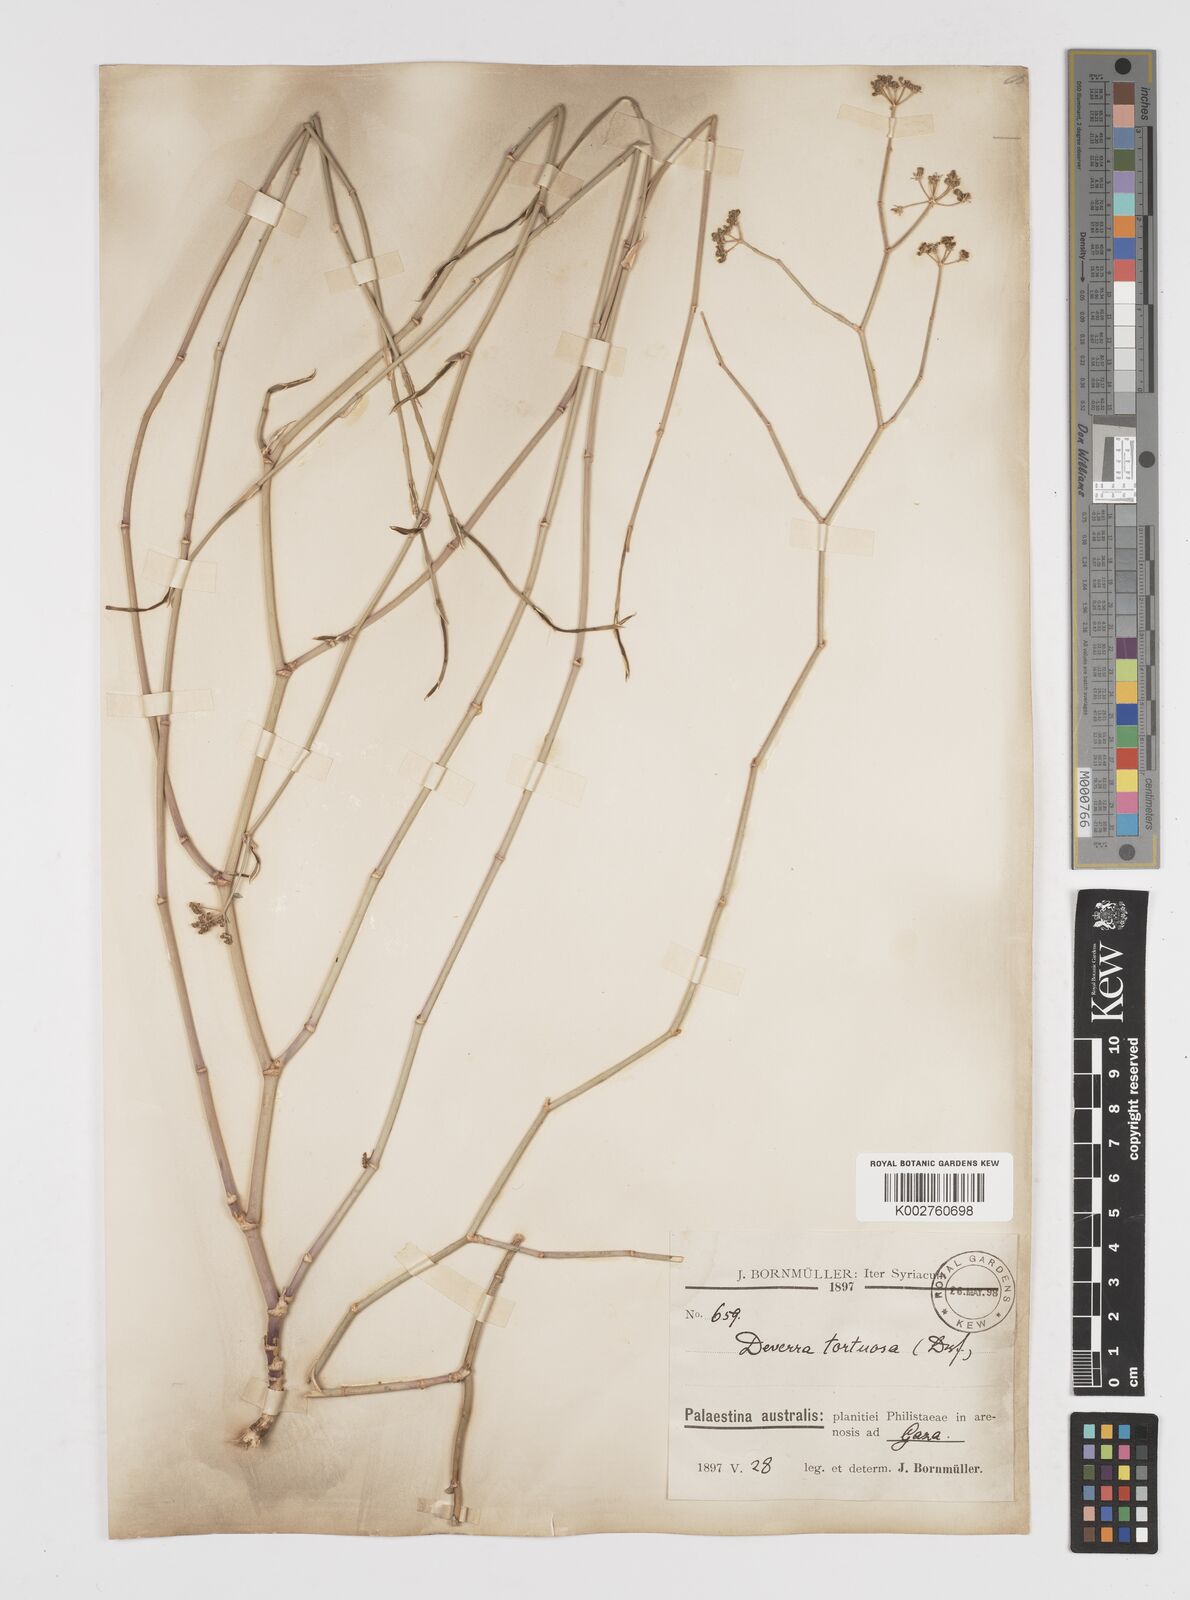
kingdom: Plantae
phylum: Tracheophyta
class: Magnoliopsida
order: Apiales
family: Apiaceae
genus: Deverra
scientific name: Deverra tortuosa
